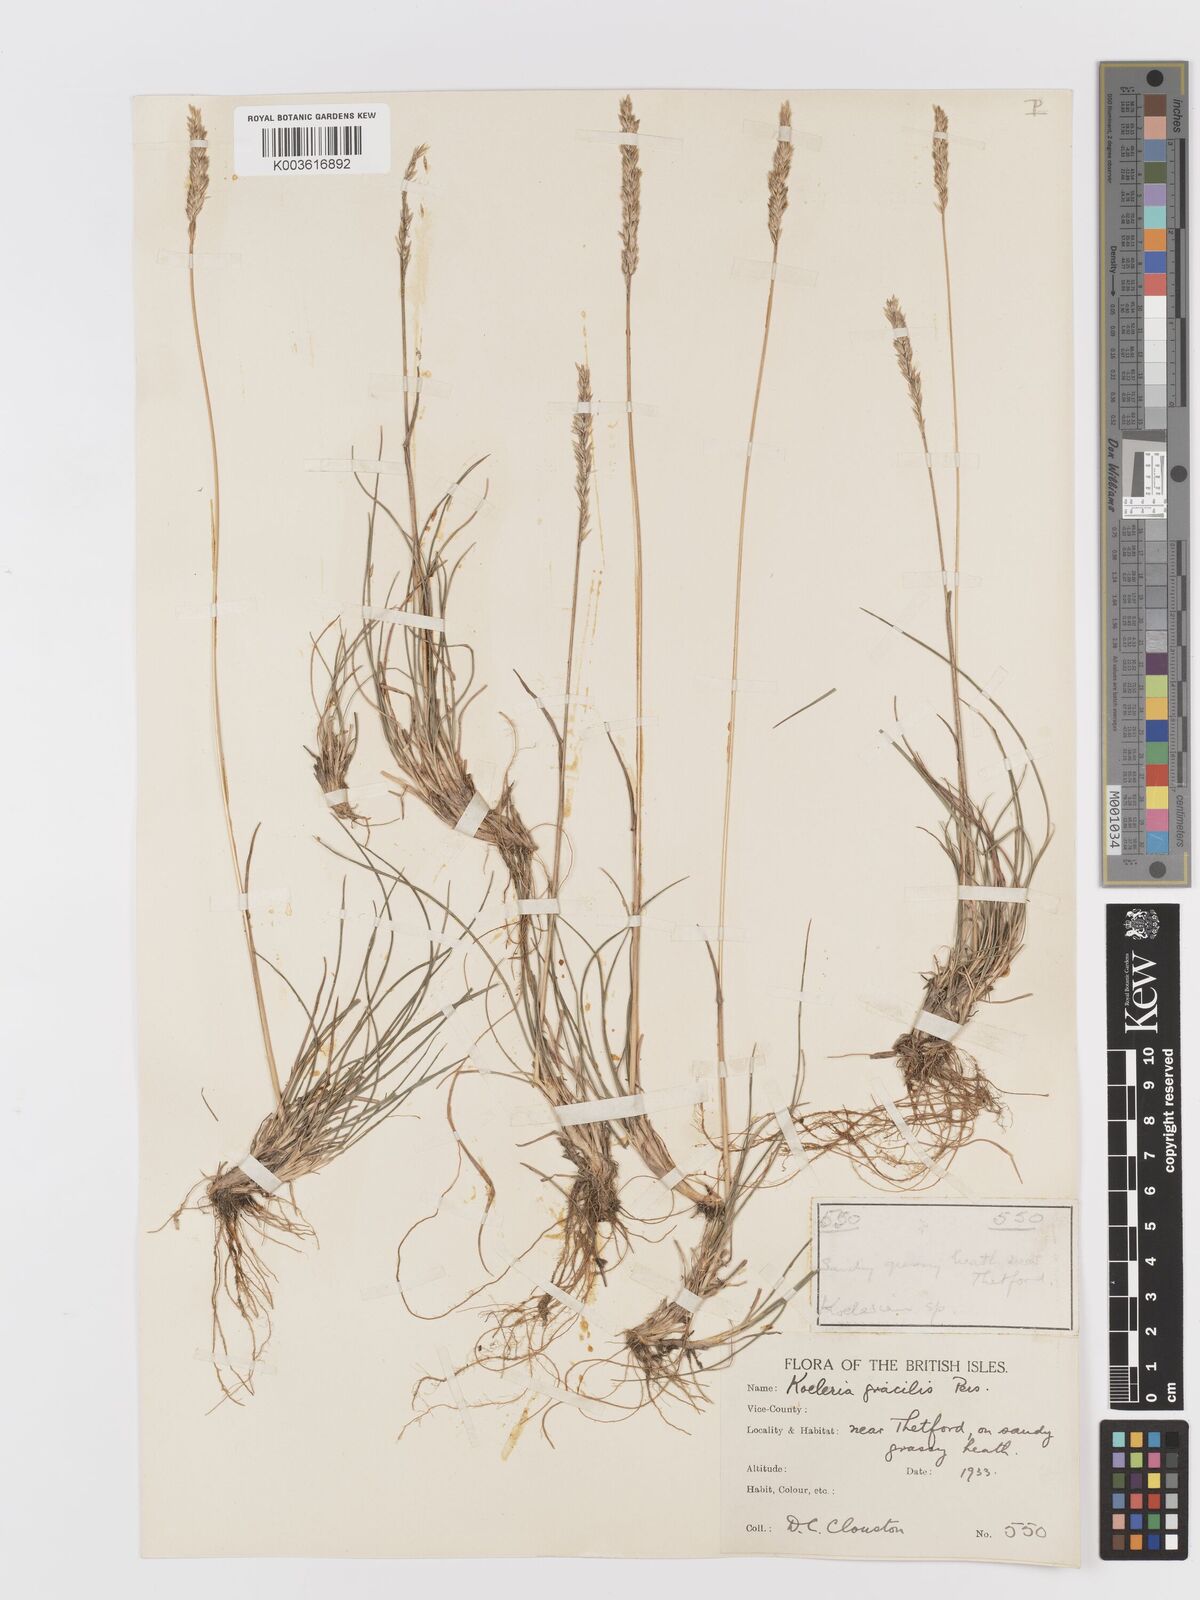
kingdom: Plantae
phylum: Tracheophyta
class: Liliopsida
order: Poales
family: Poaceae
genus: Koeleria
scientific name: Koeleria macrantha
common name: Crested hair-grass
